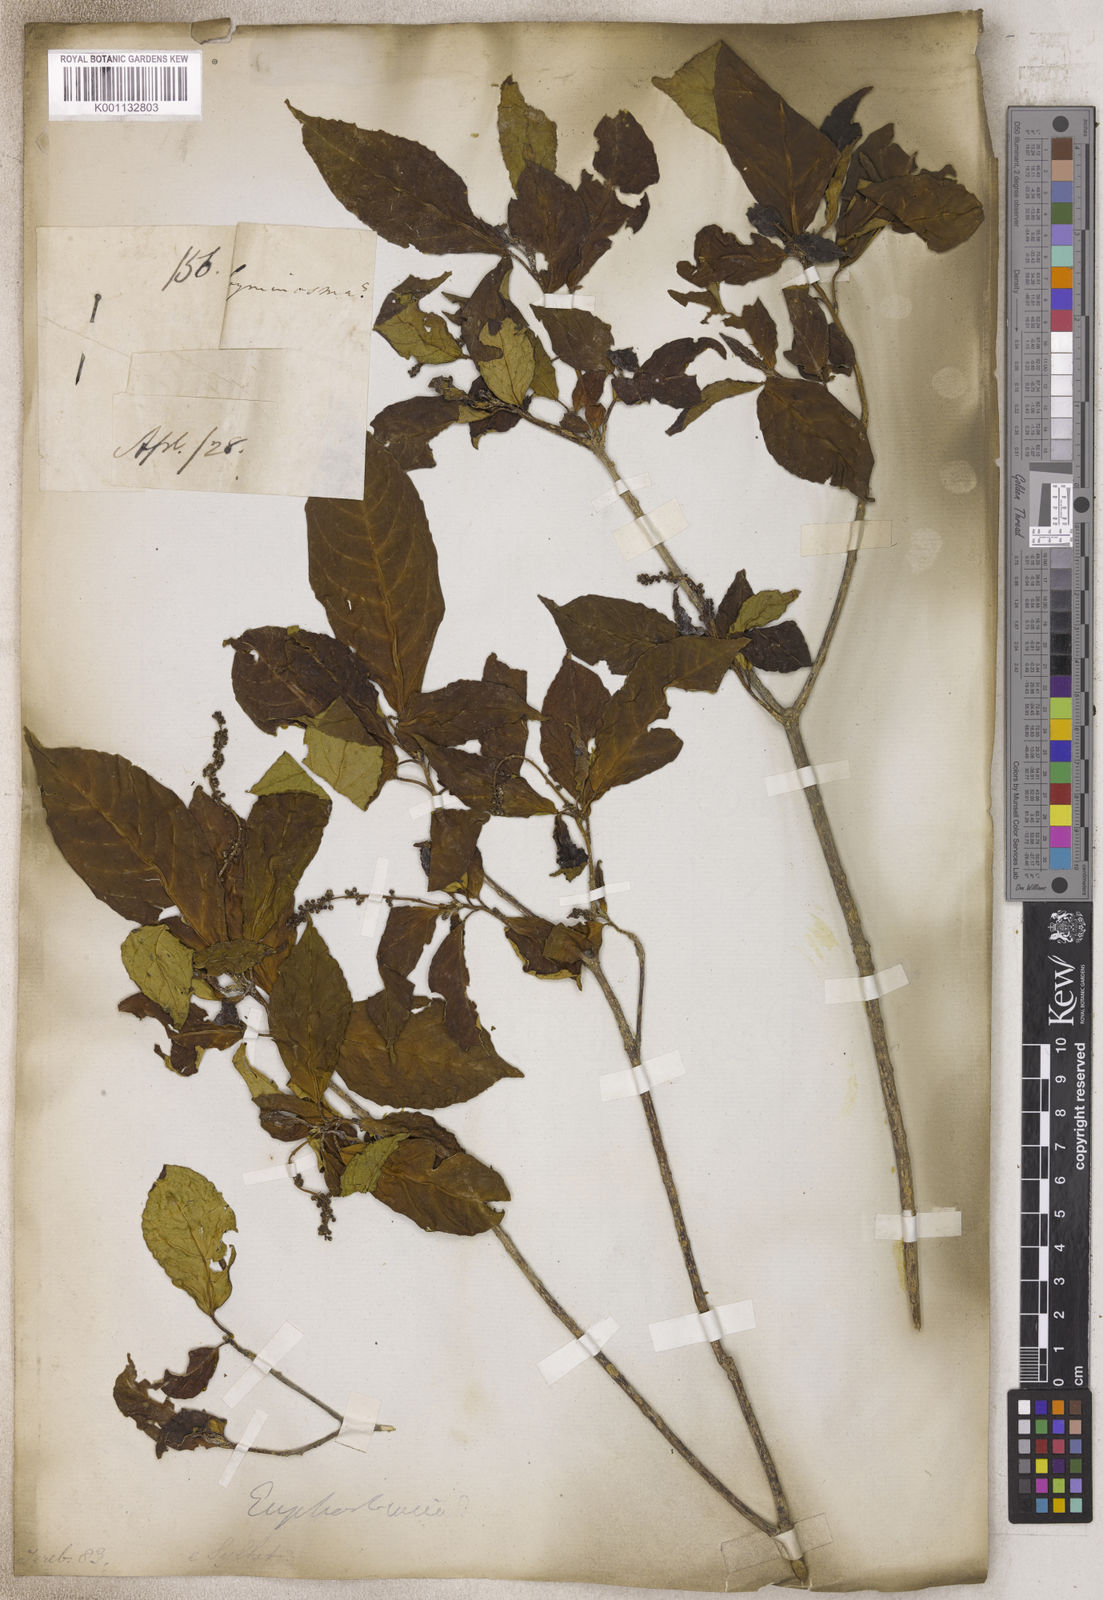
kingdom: Plantae
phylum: Tracheophyta
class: Magnoliopsida
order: Sapindales
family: Rutaceae
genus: Acronychia
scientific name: Acronychia
